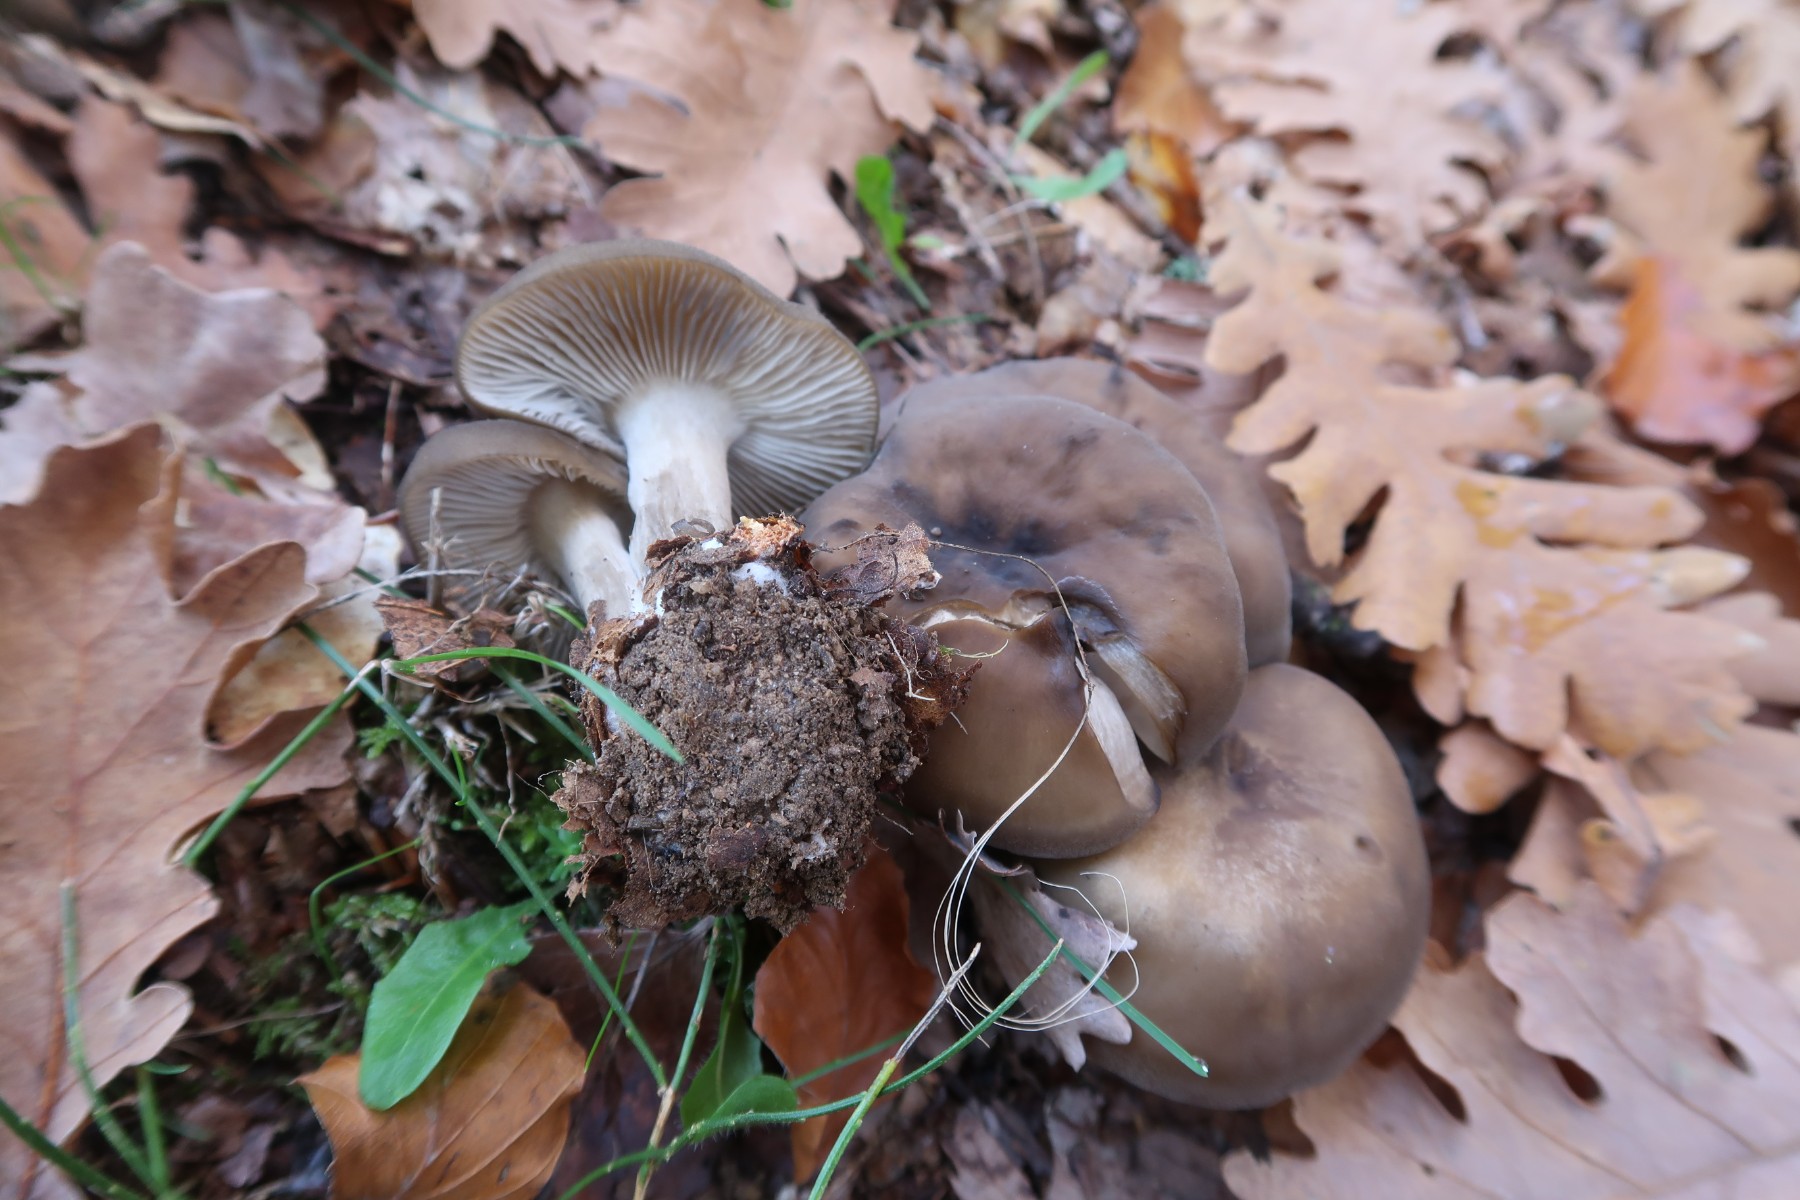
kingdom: Fungi
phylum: Basidiomycota
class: Agaricomycetes
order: Agaricales
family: Lyophyllaceae
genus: Lyophyllum
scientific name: Lyophyllum transforme
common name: kantsporet gråblad
